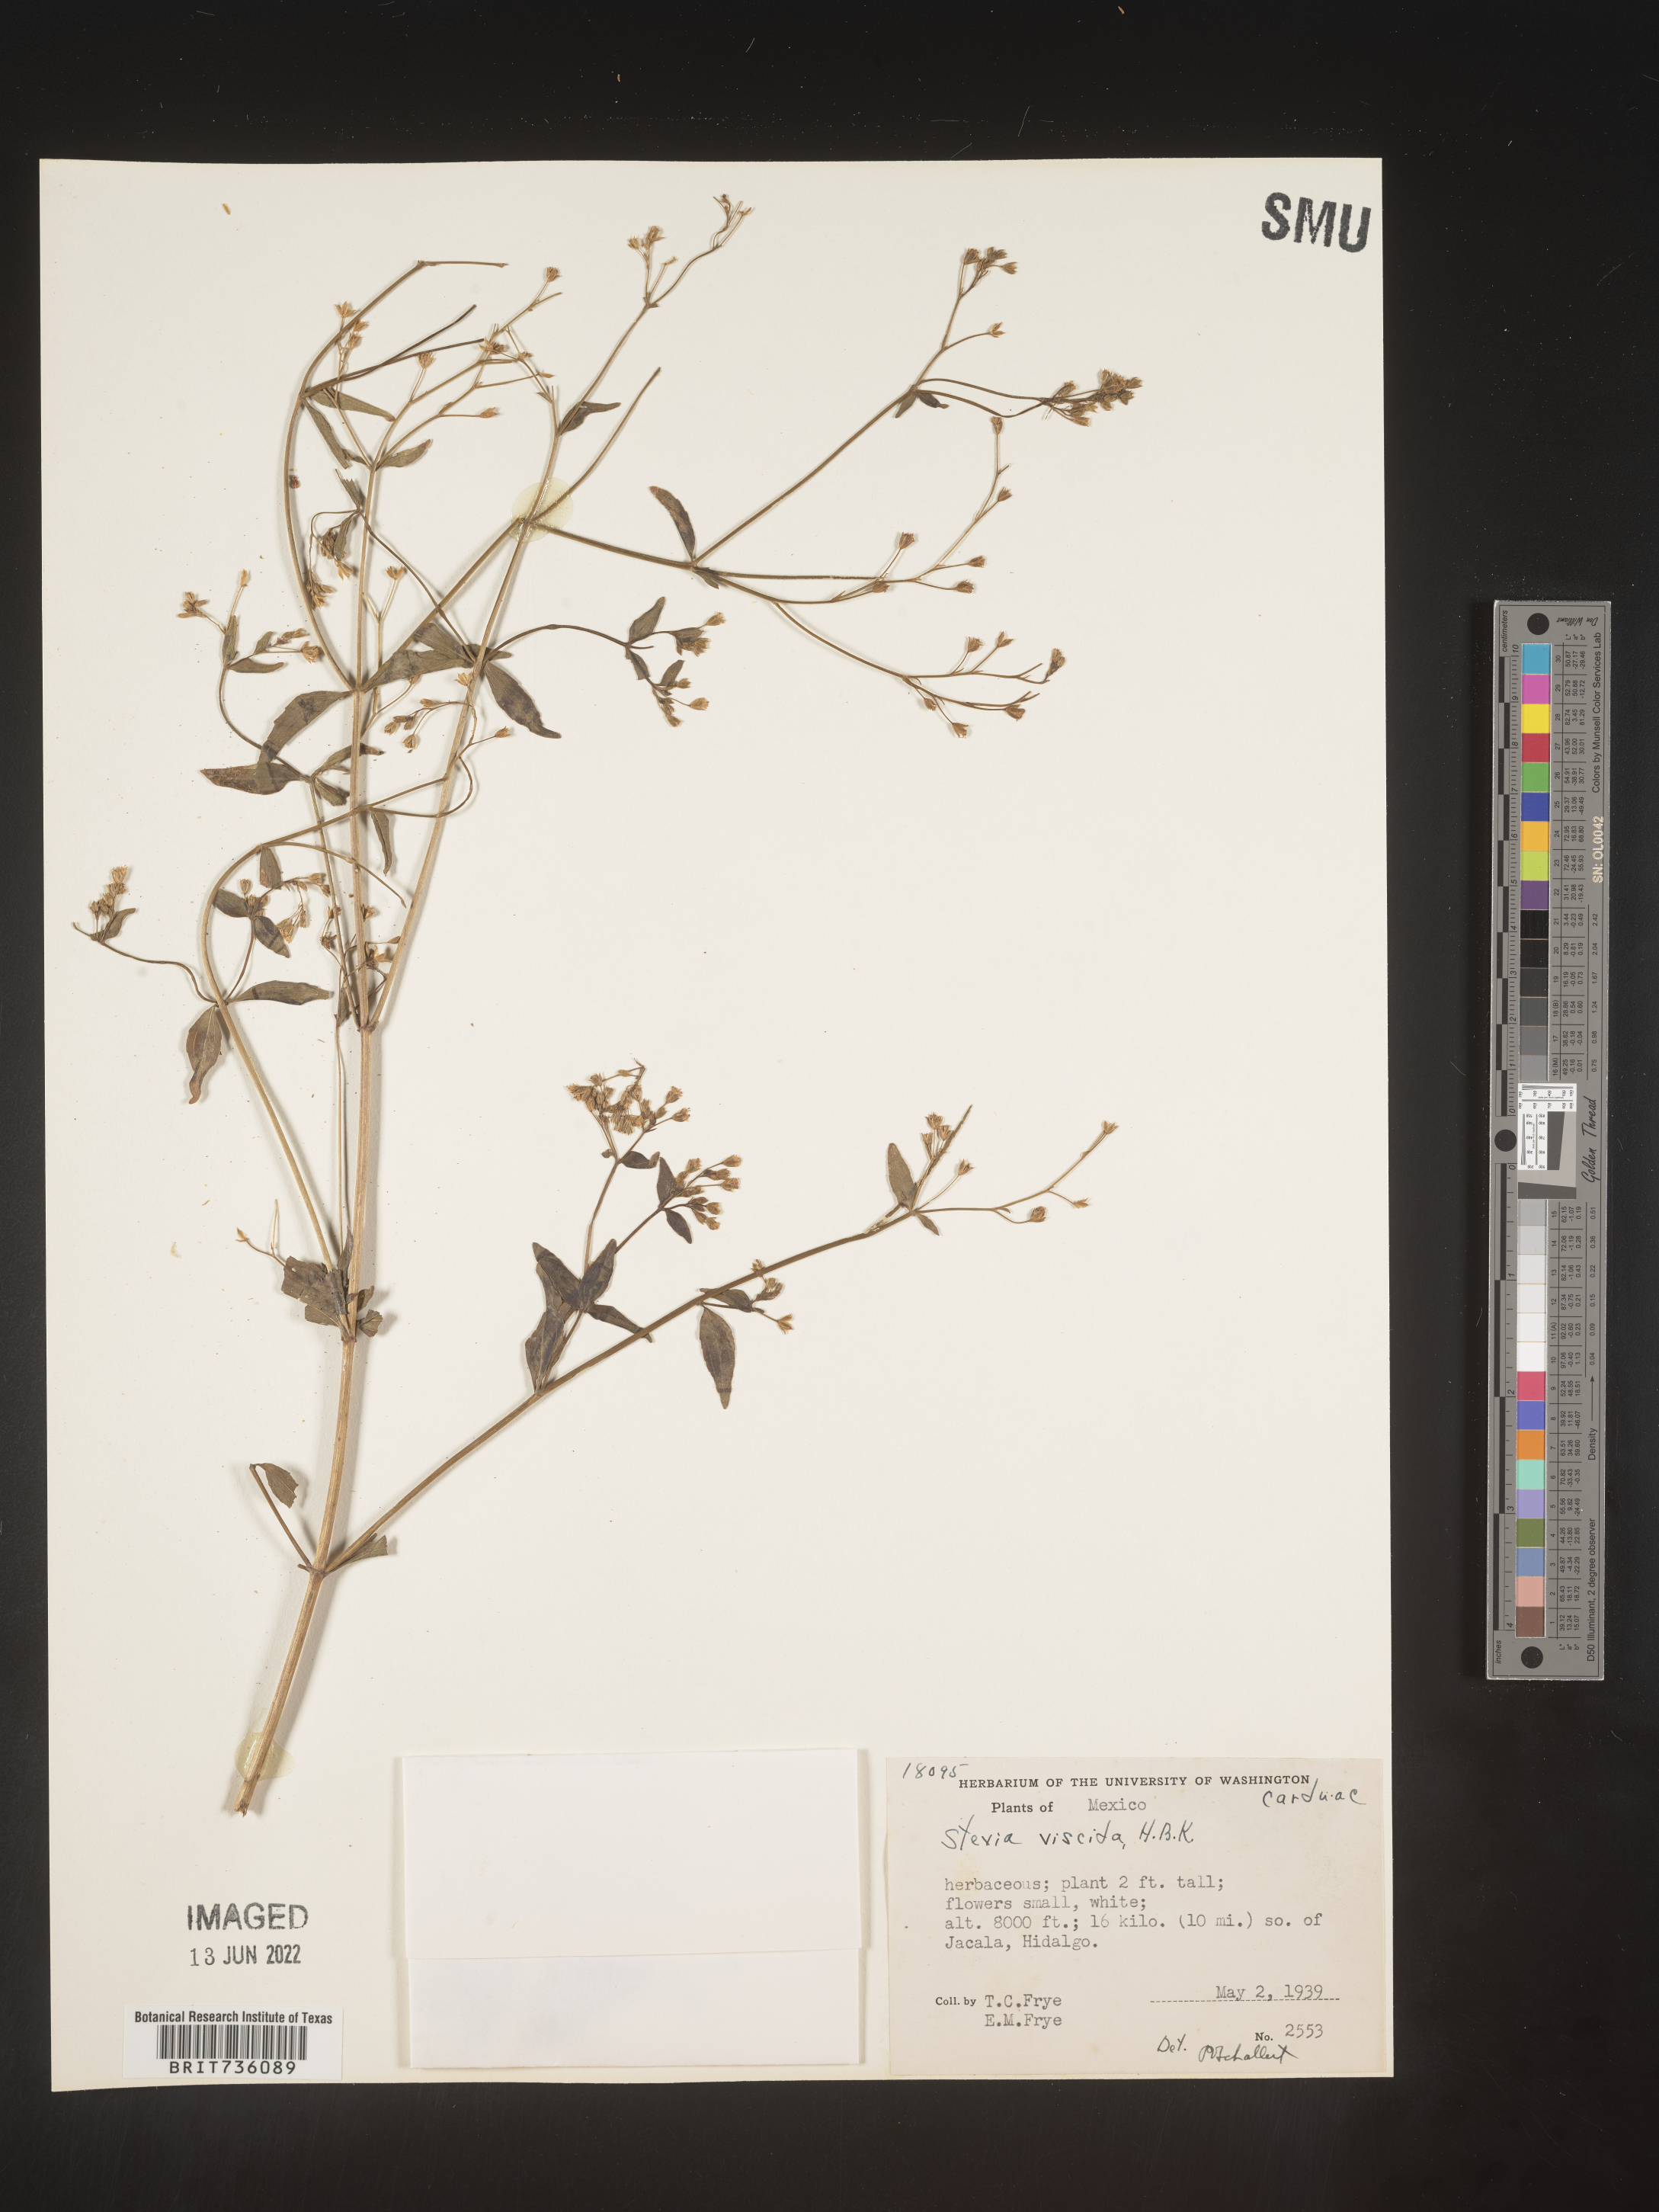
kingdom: Plantae
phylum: Tracheophyta
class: Magnoliopsida
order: Asterales
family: Asteraceae
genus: Piqueria
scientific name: Piqueria
